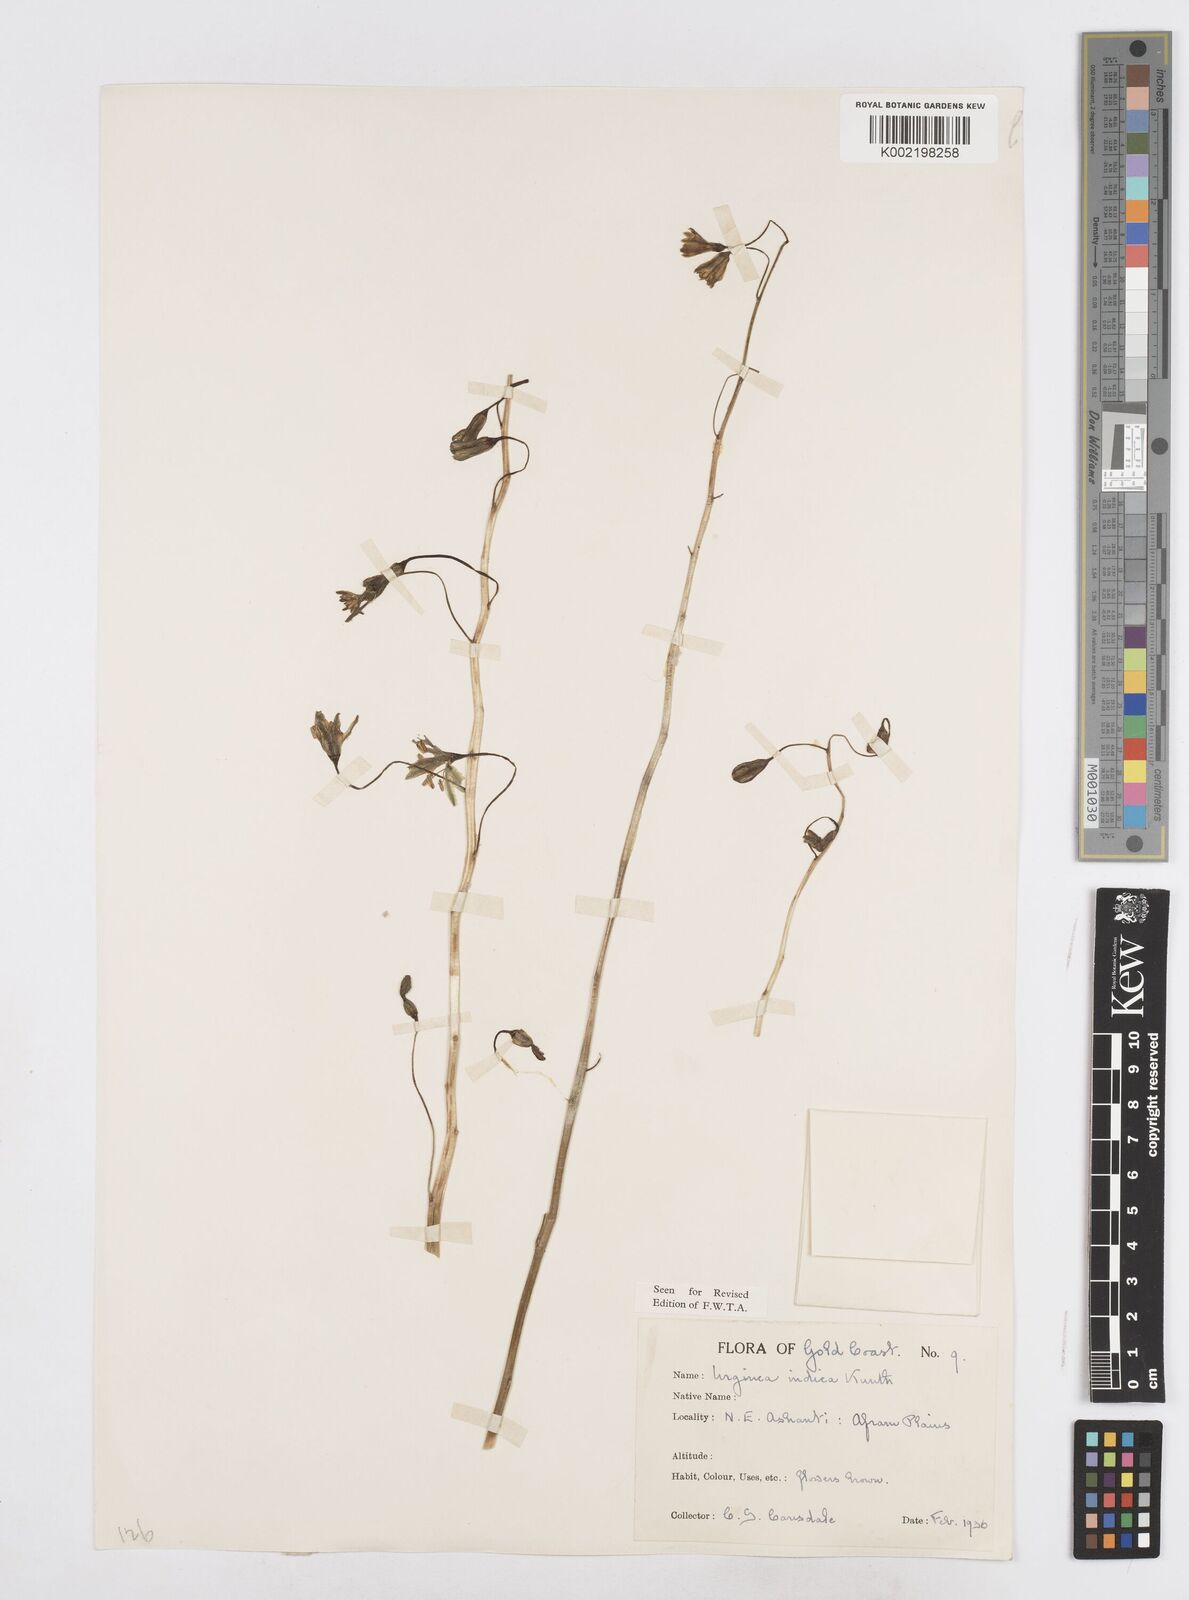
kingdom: Plantae
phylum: Tracheophyta
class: Liliopsida
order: Asparagales
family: Asparagaceae
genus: Drimia
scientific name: Drimia indica
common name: Indian-squill
